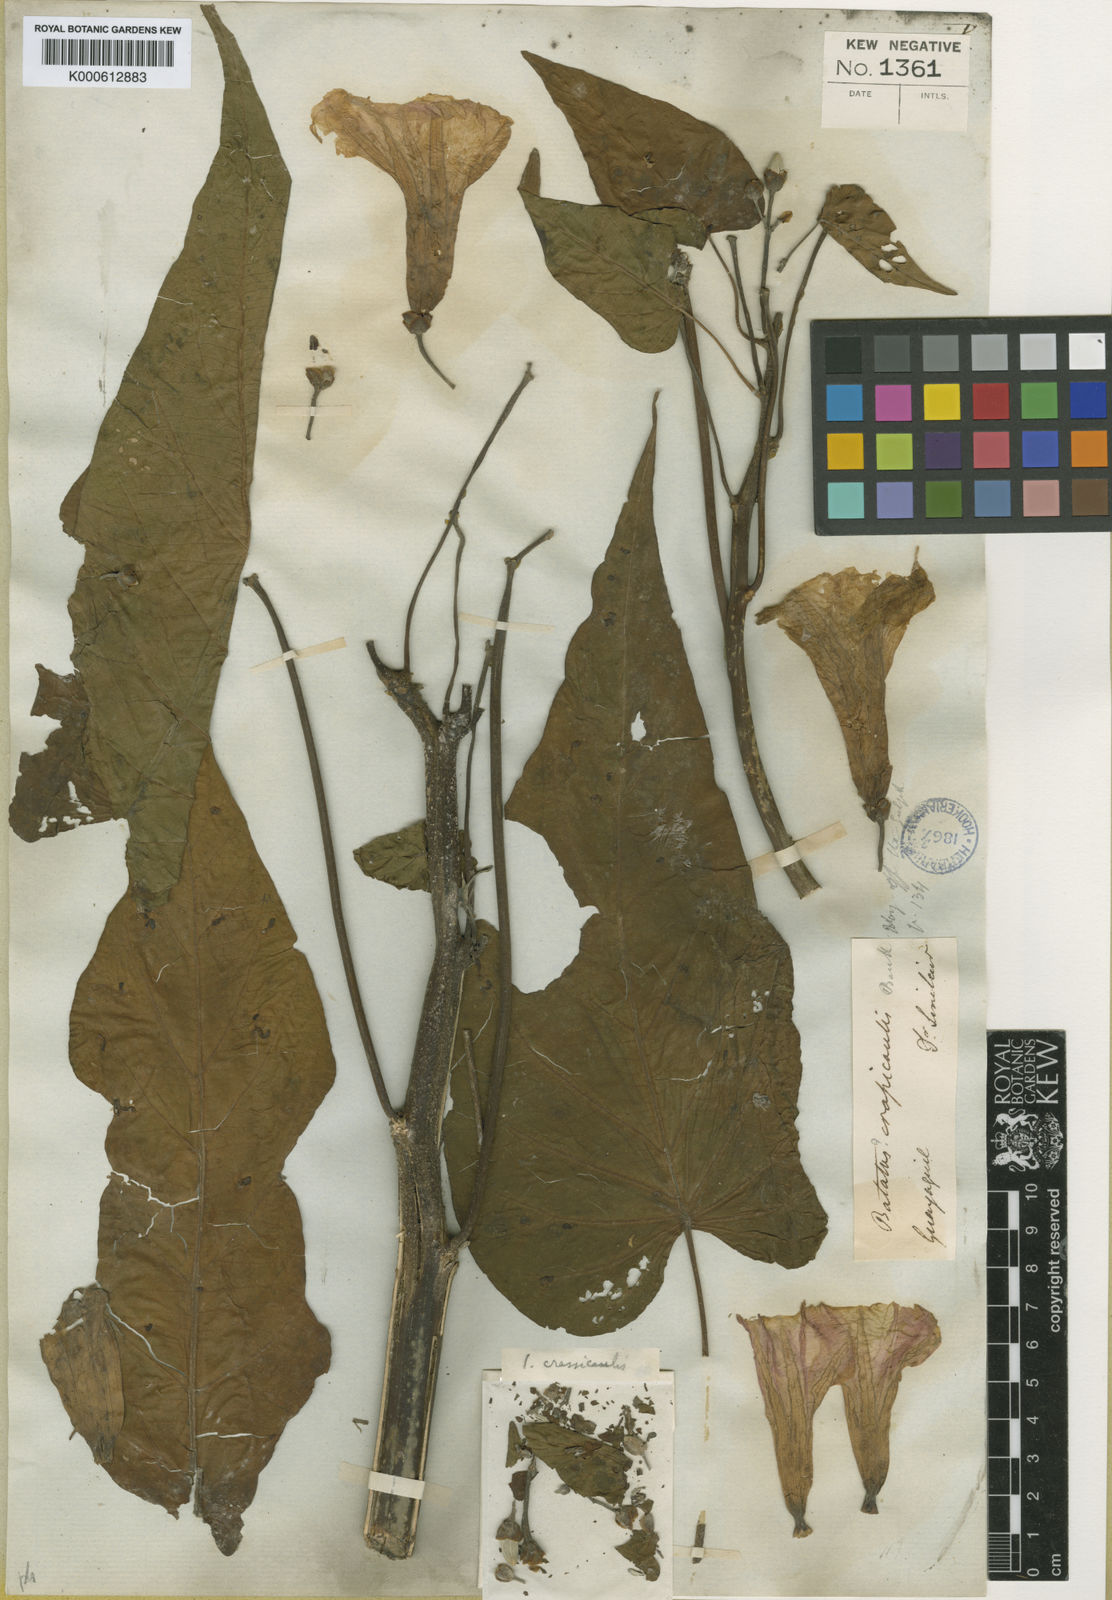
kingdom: Plantae
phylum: Tracheophyta
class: Magnoliopsida
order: Solanales
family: Convolvulaceae
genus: Ipomoea
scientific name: Ipomoea carnea
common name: Morning-glory
